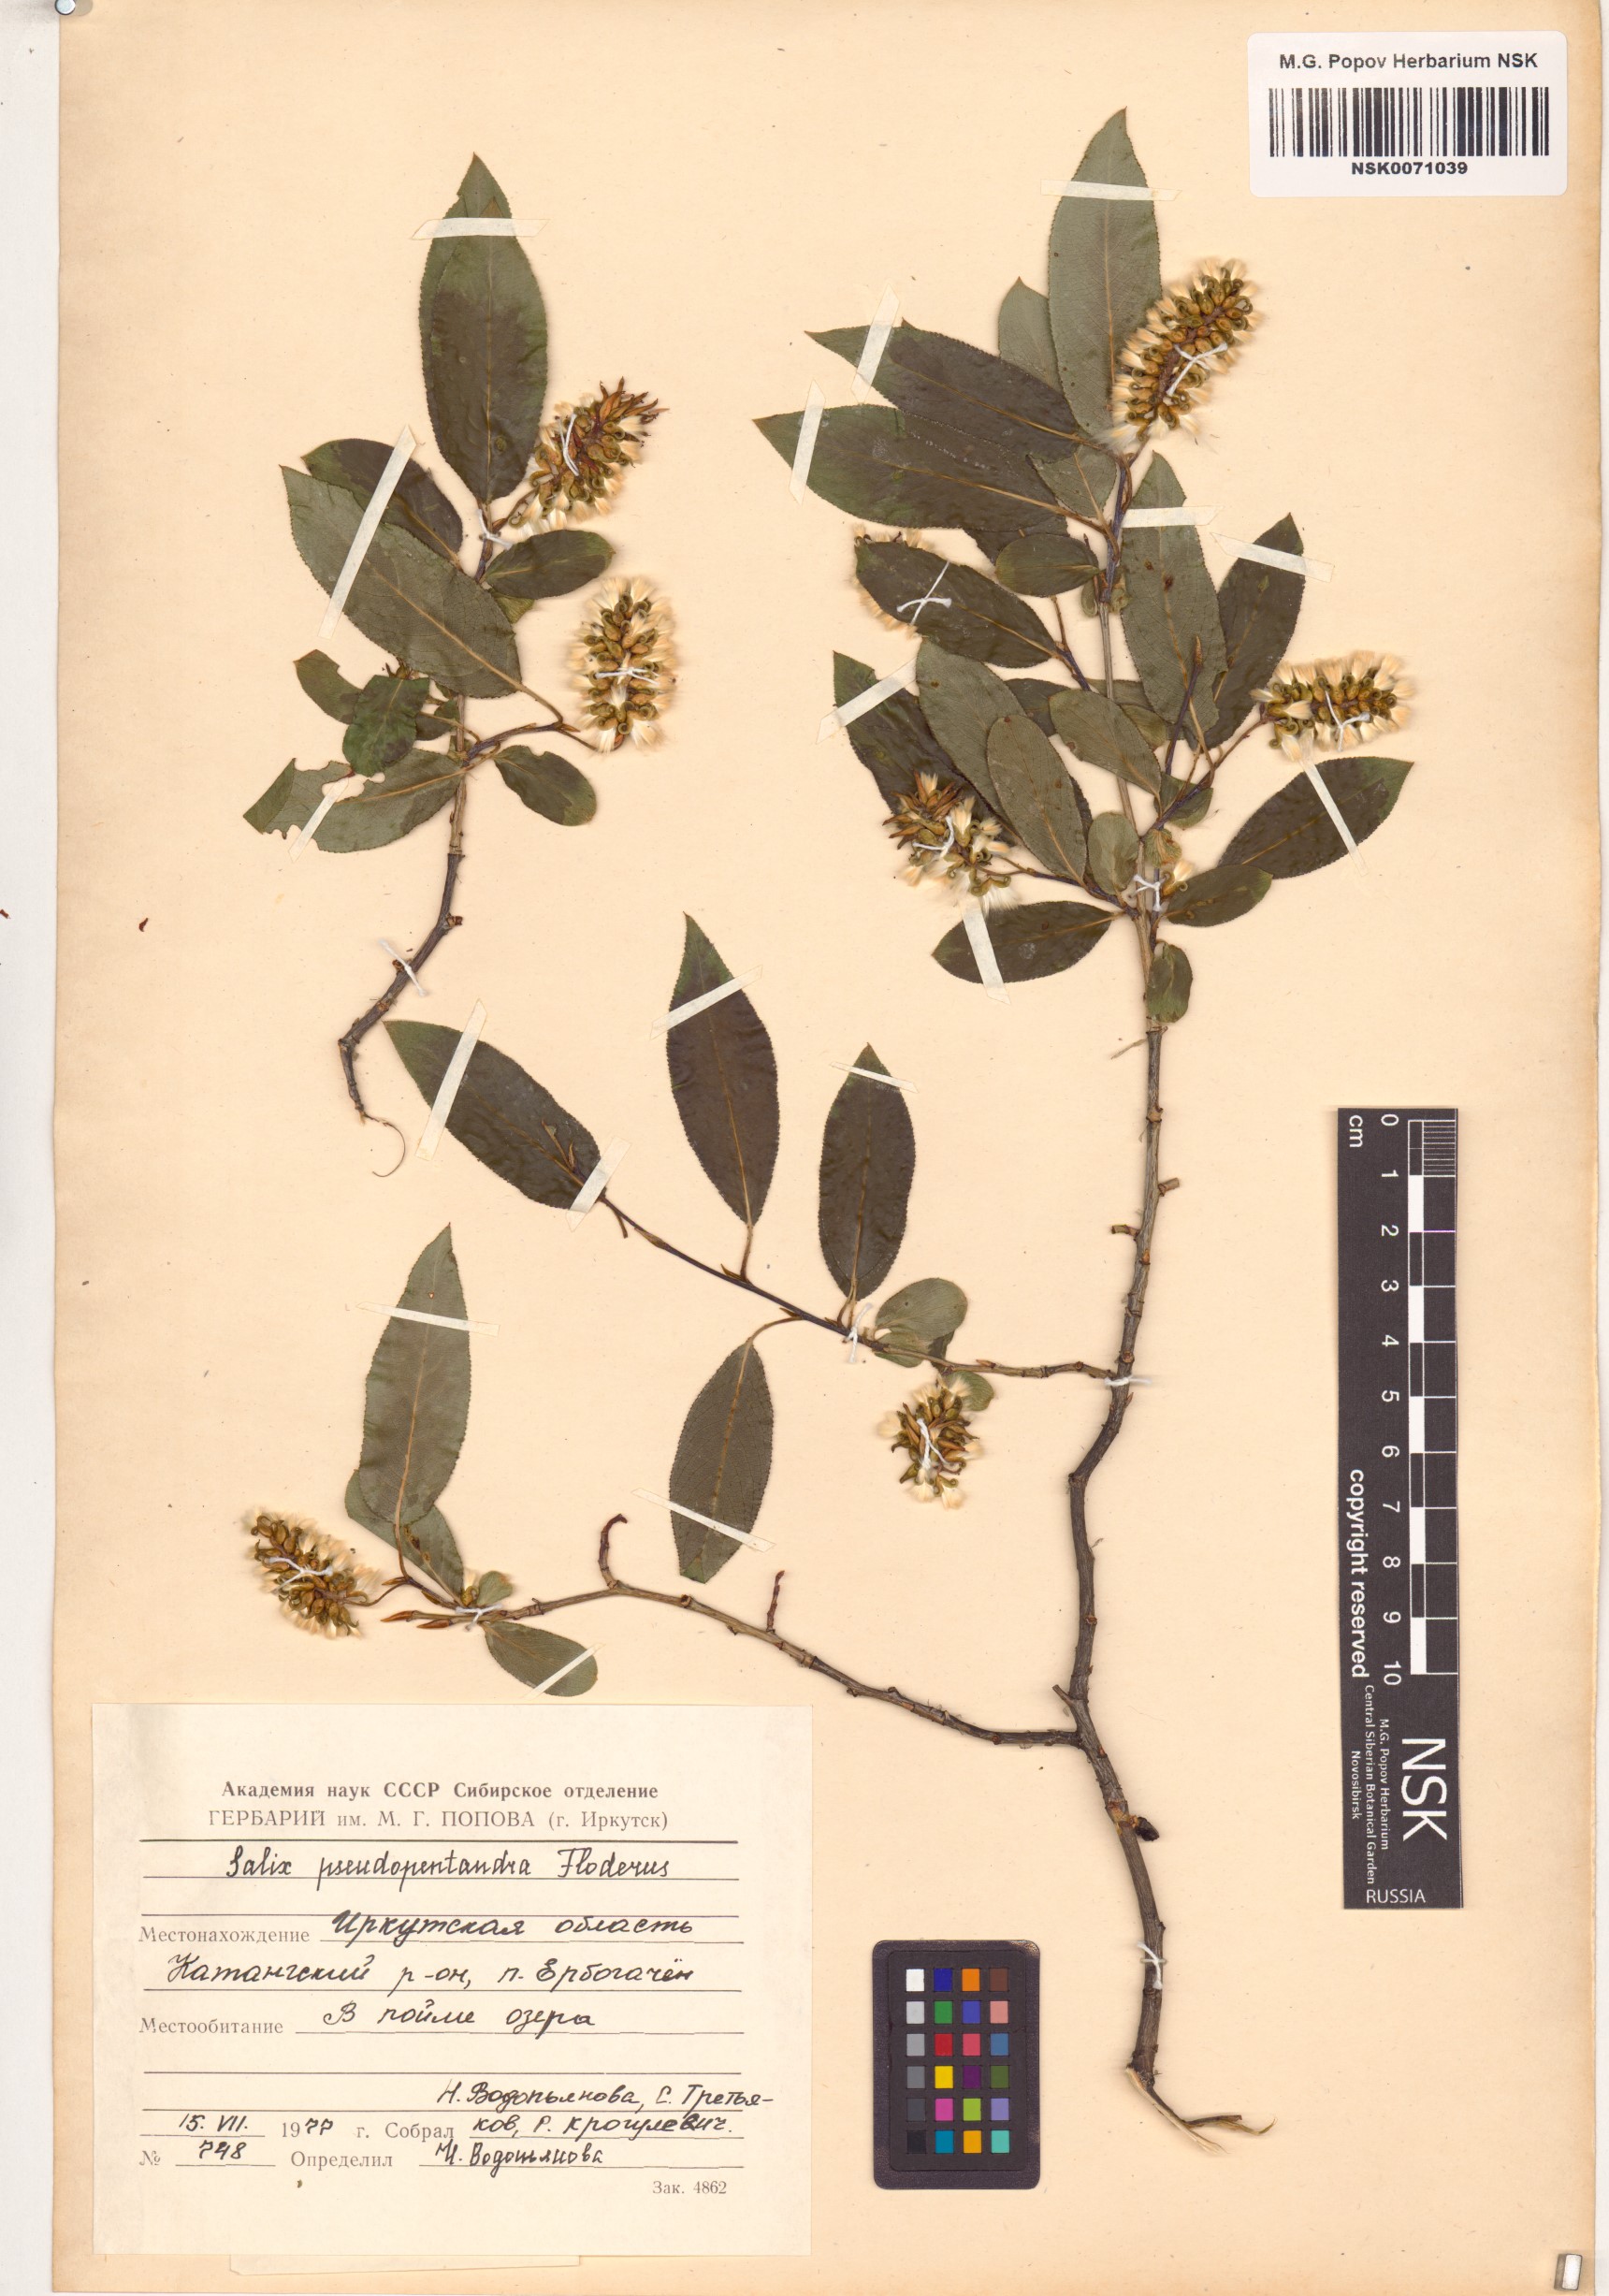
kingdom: Plantae
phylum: Tracheophyta
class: Magnoliopsida
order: Malpighiales
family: Salicaceae
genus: Salix
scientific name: Salix pseudopentandra
